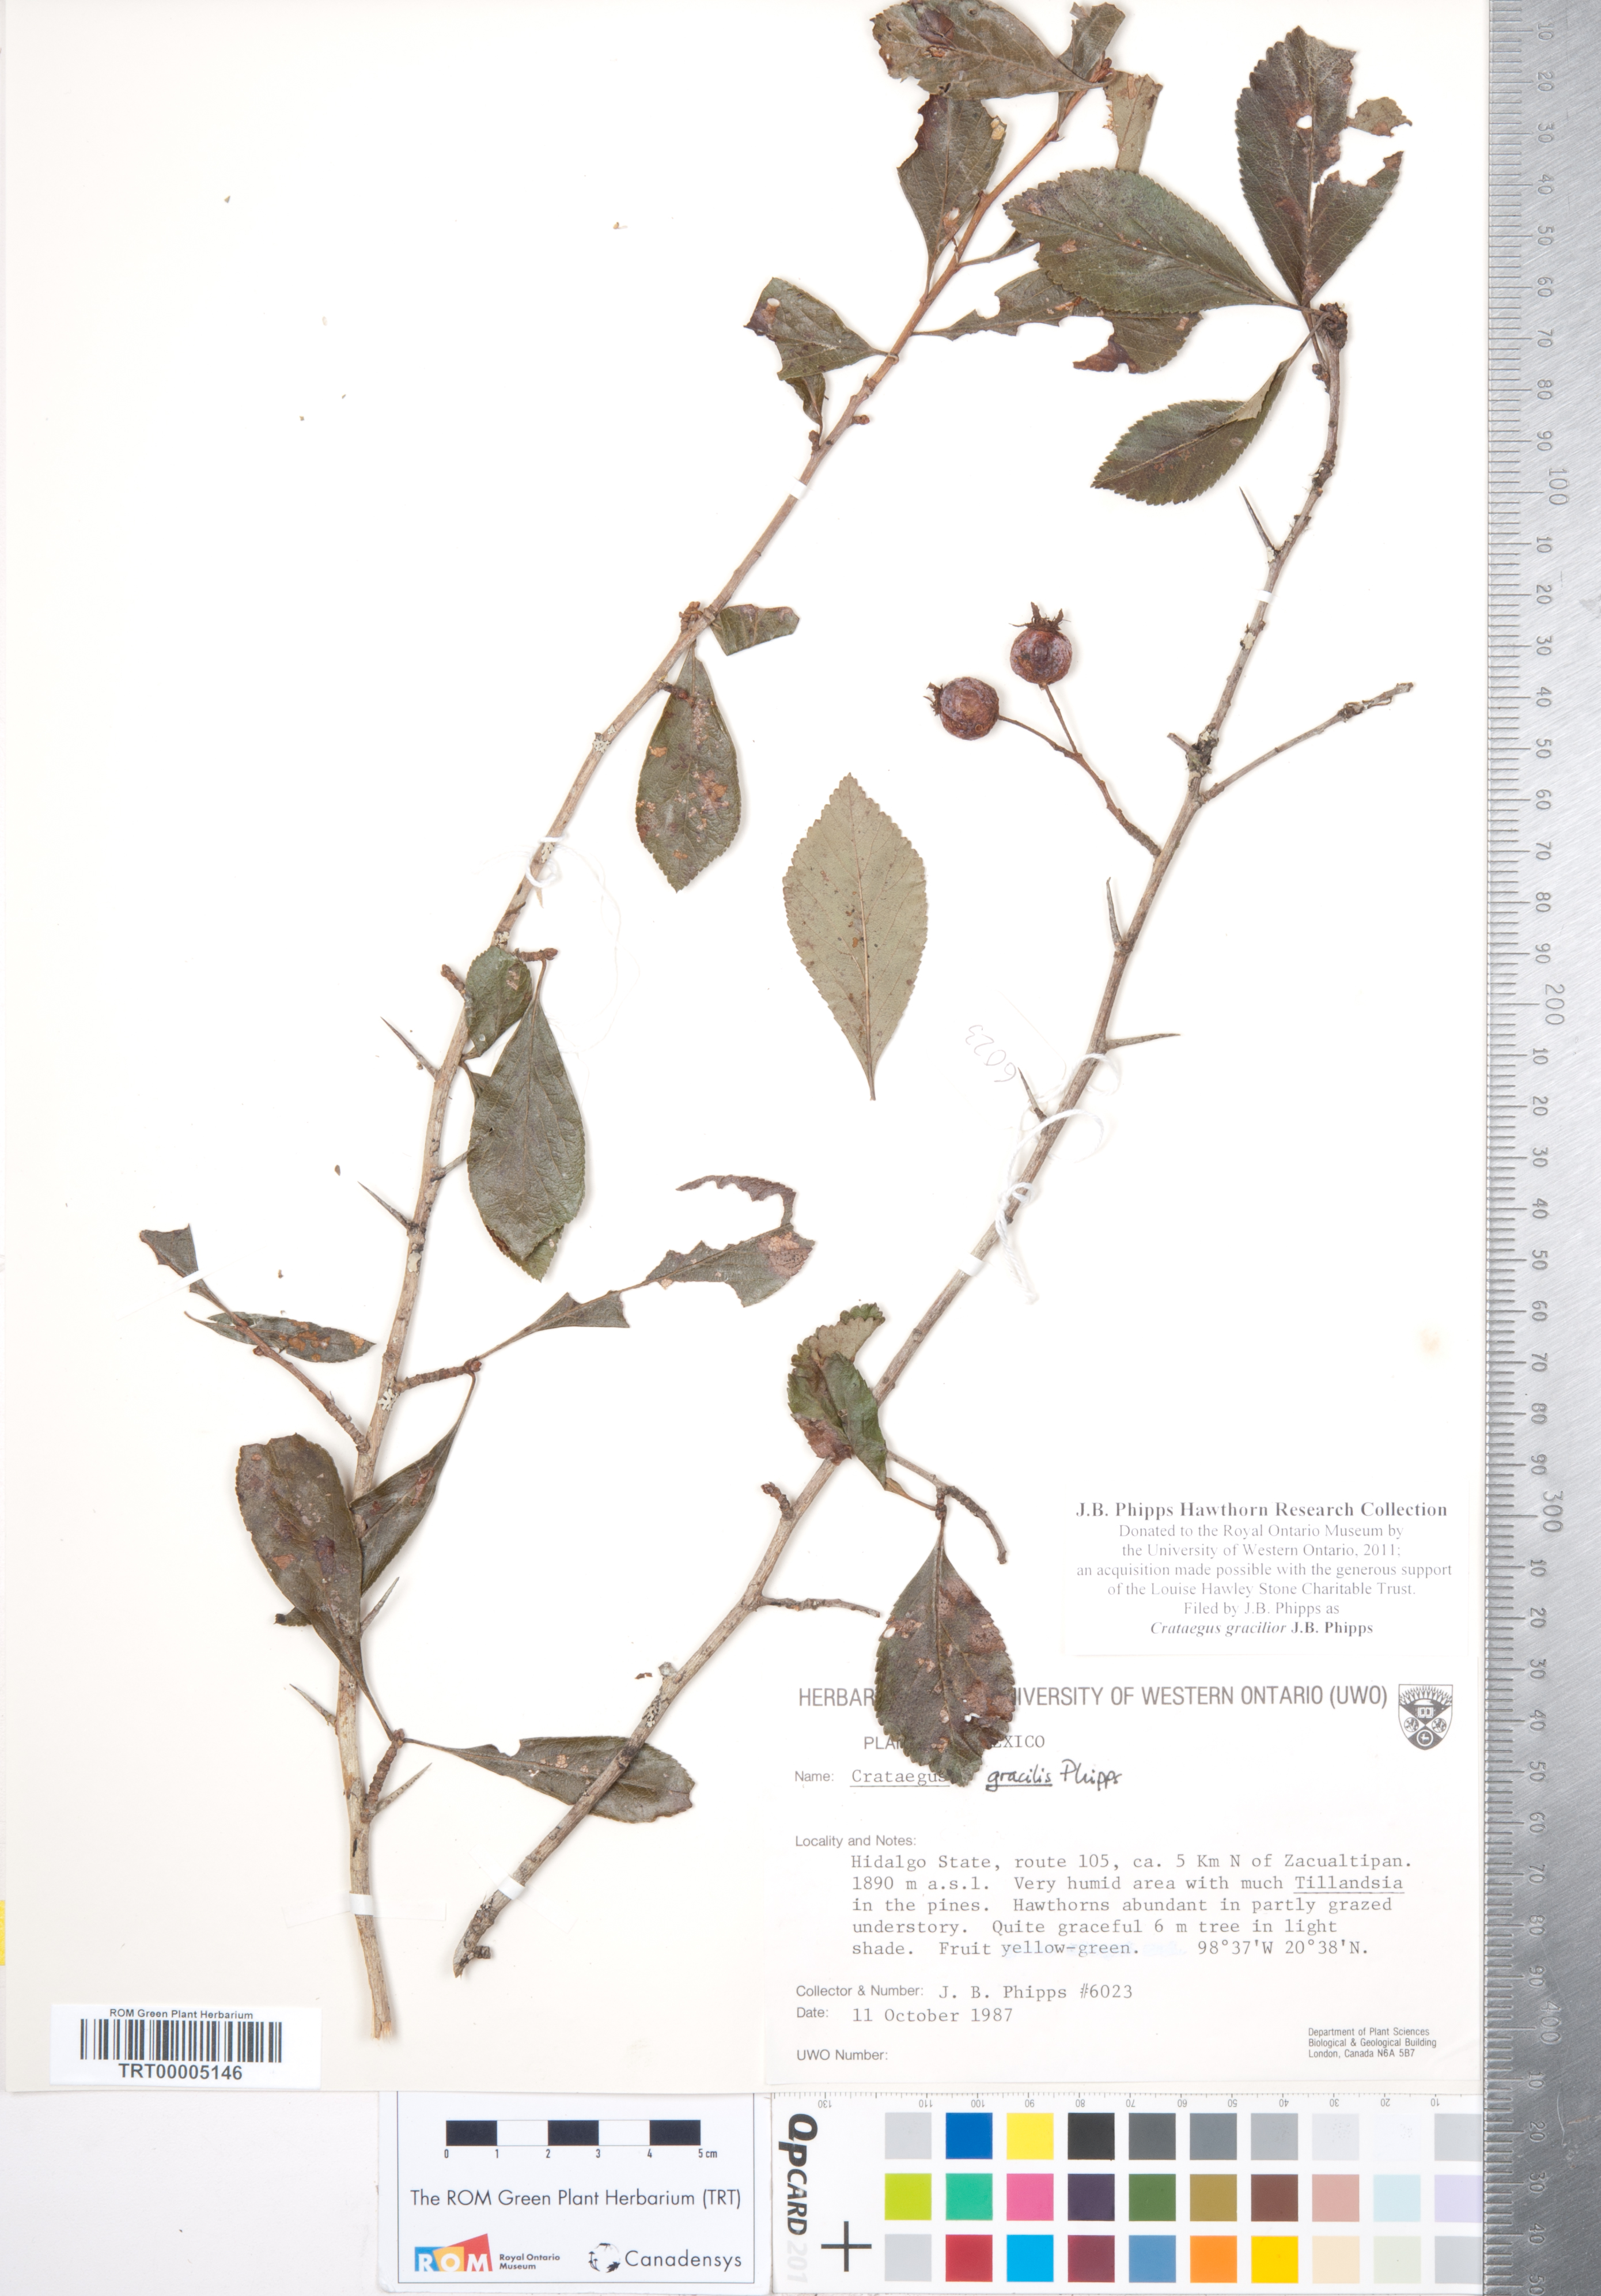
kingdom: Plantae
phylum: Tracheophyta
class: Magnoliopsida
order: Rosales
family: Rosaceae
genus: Crataegus
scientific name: Crataegus gracilior
